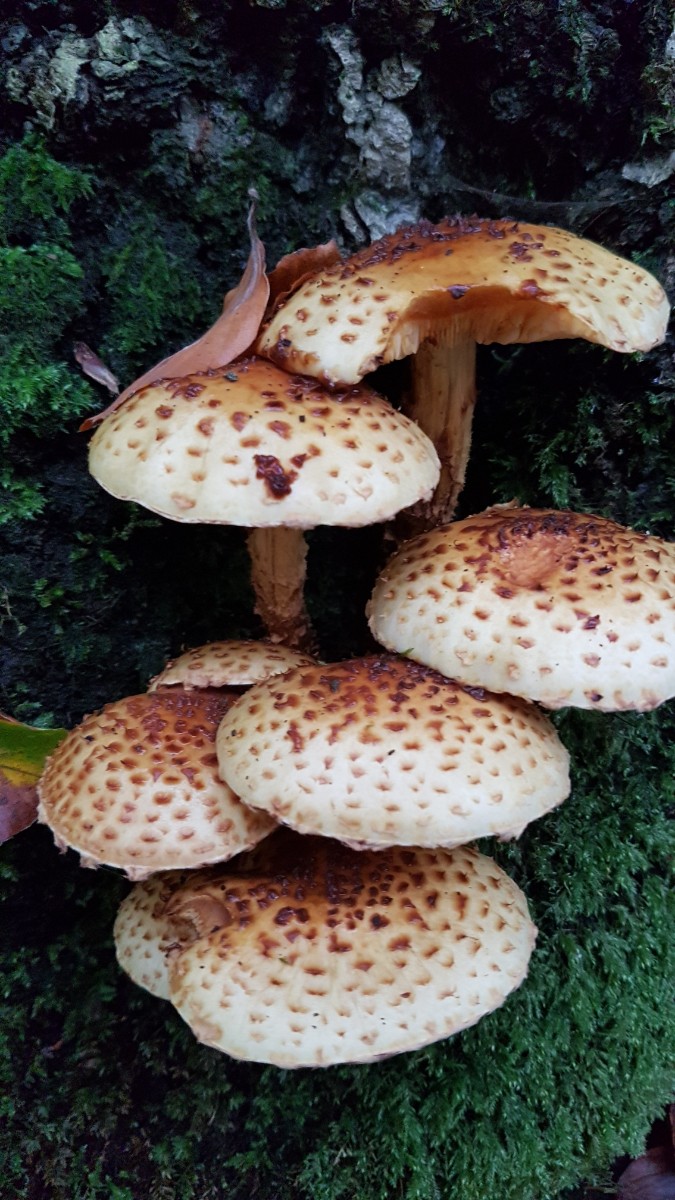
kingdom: Fungi
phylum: Basidiomycota
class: Agaricomycetes
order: Agaricales
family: Strophariaceae
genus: Pholiota
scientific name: Pholiota jahnii
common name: slimet skælhat
